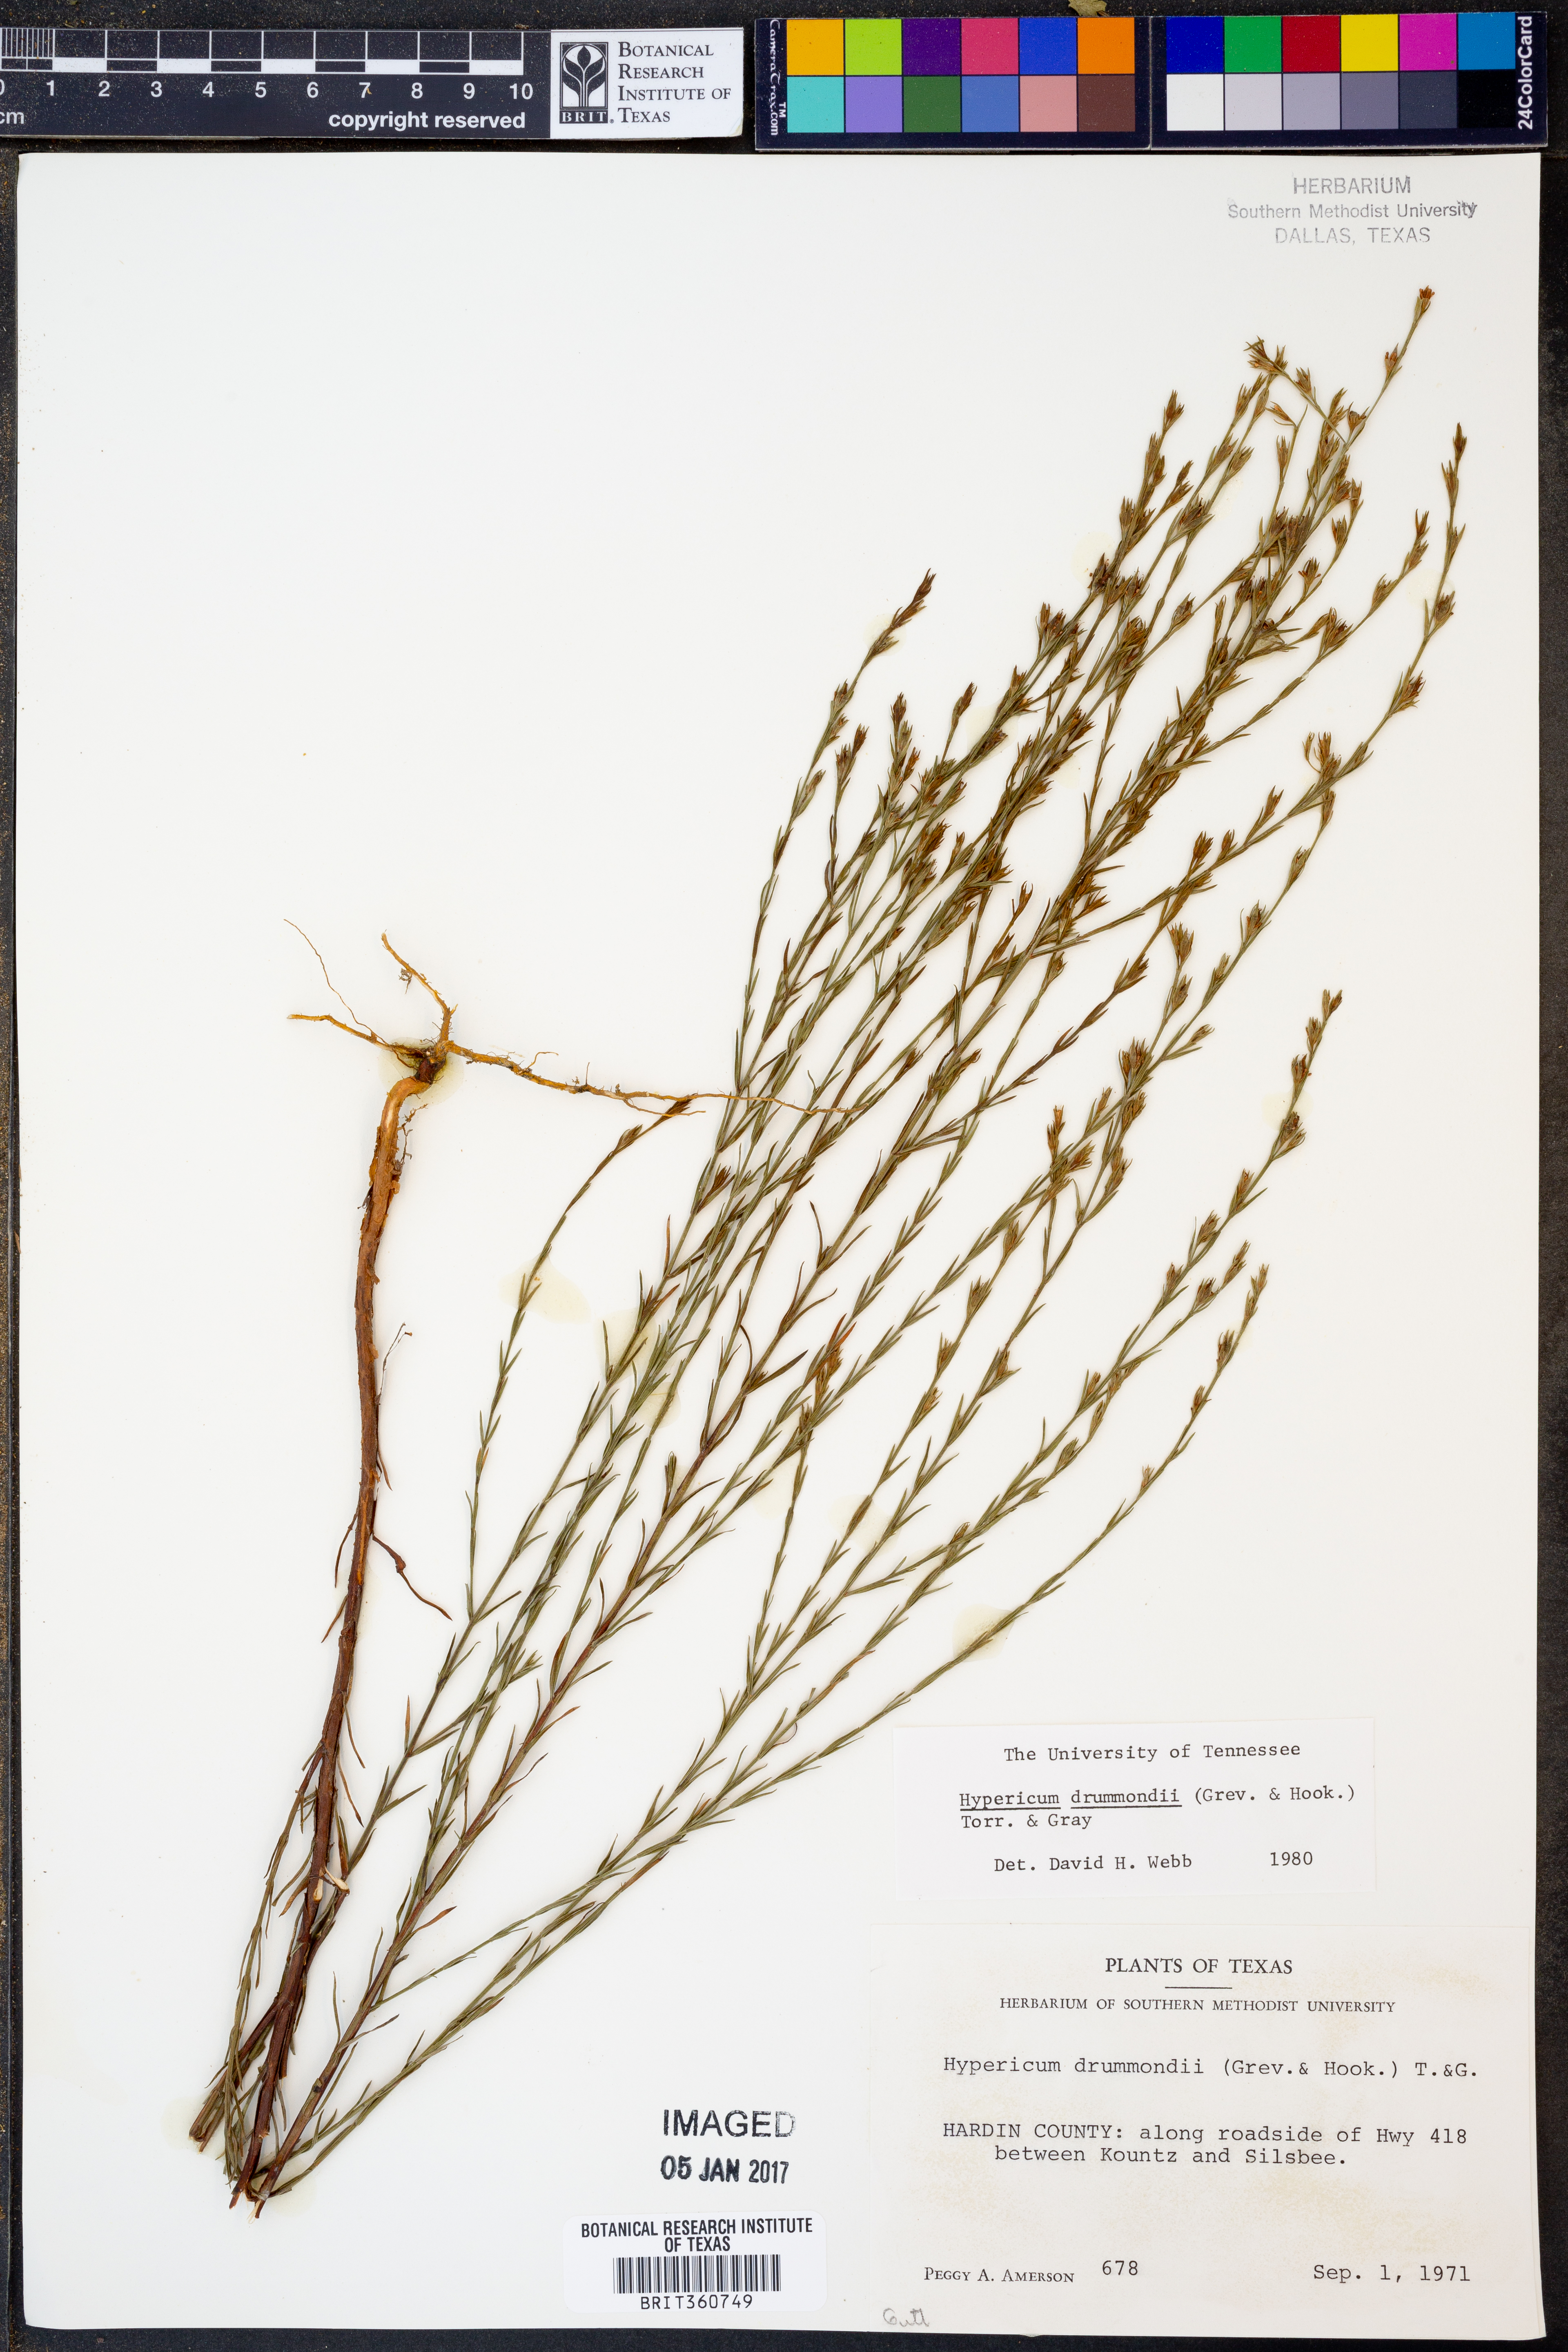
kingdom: Plantae
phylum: Tracheophyta
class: Magnoliopsida
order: Malpighiales
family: Hypericaceae
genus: Hypericum
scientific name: Hypericum drummondii
